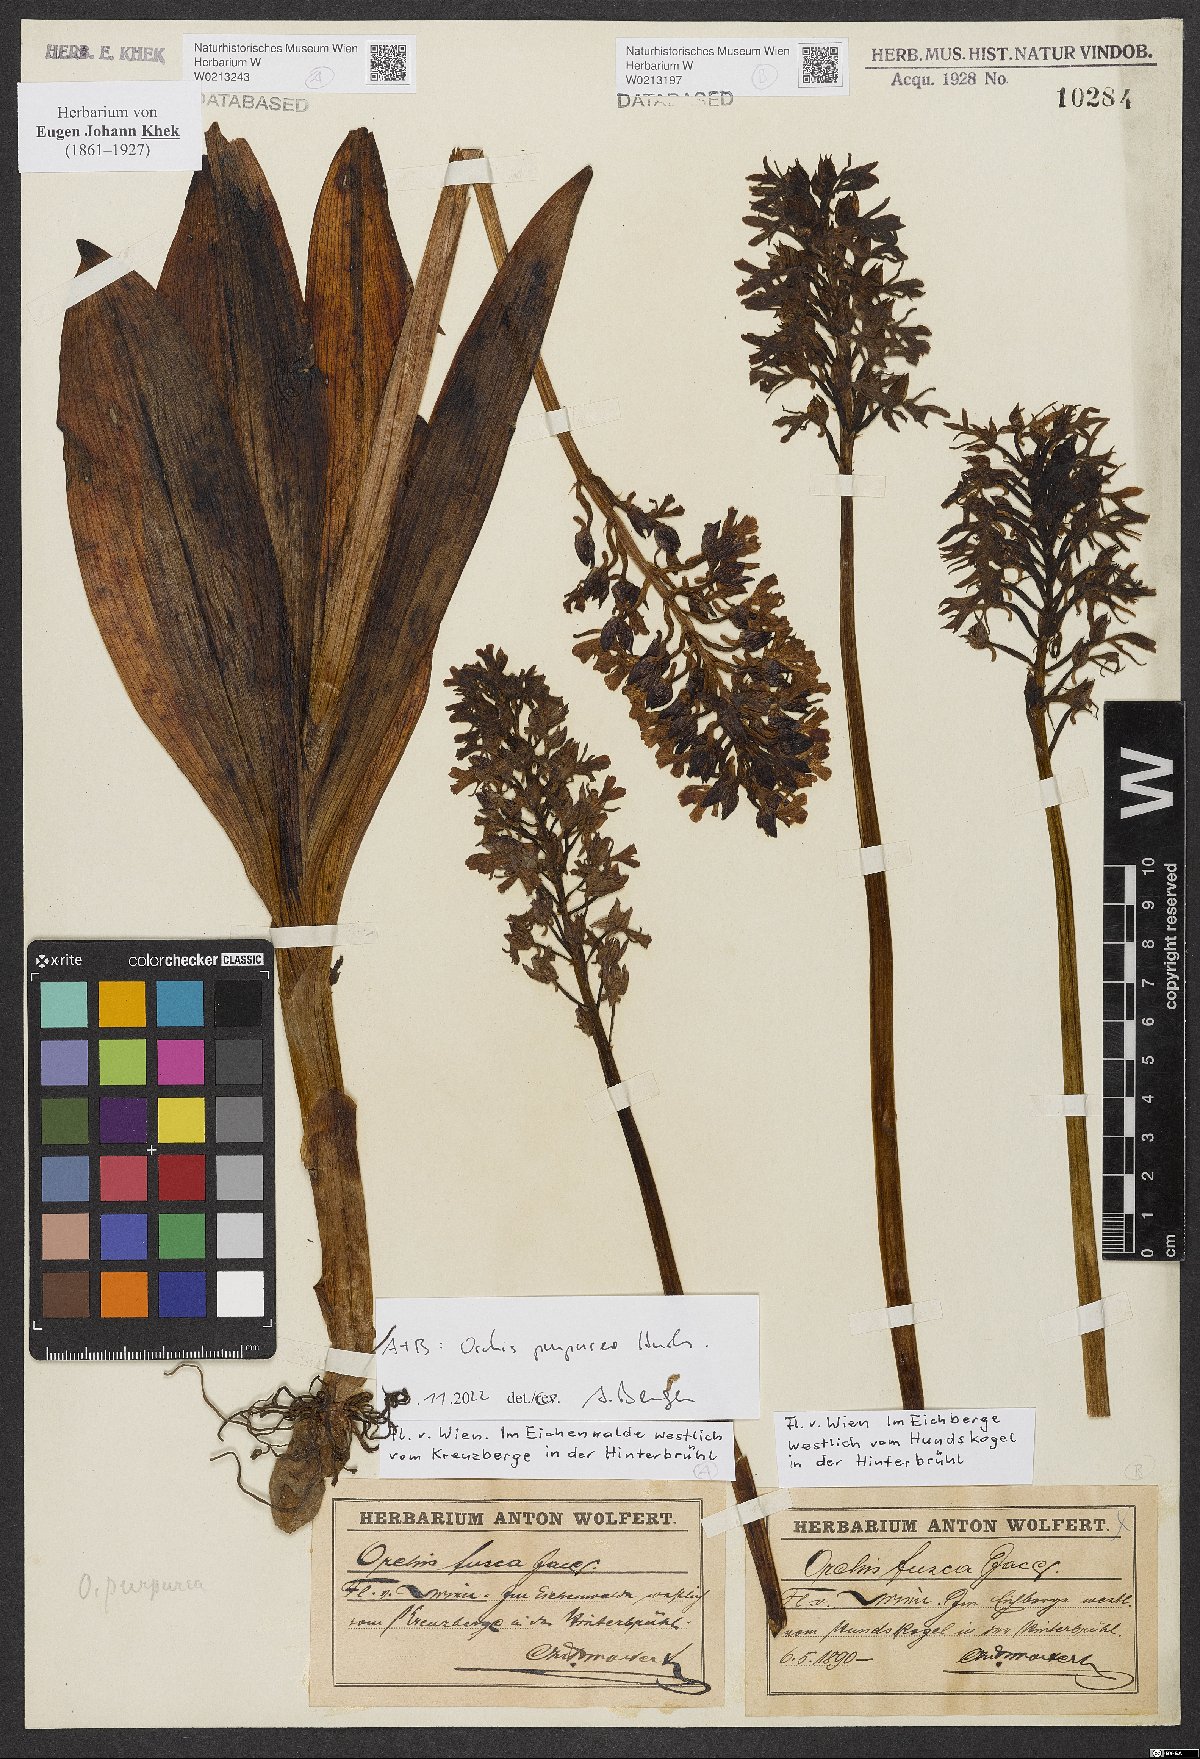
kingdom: Plantae
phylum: Tracheophyta
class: Liliopsida
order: Asparagales
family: Orchidaceae
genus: Orchis
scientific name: Orchis purpurea
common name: Lady orchid
